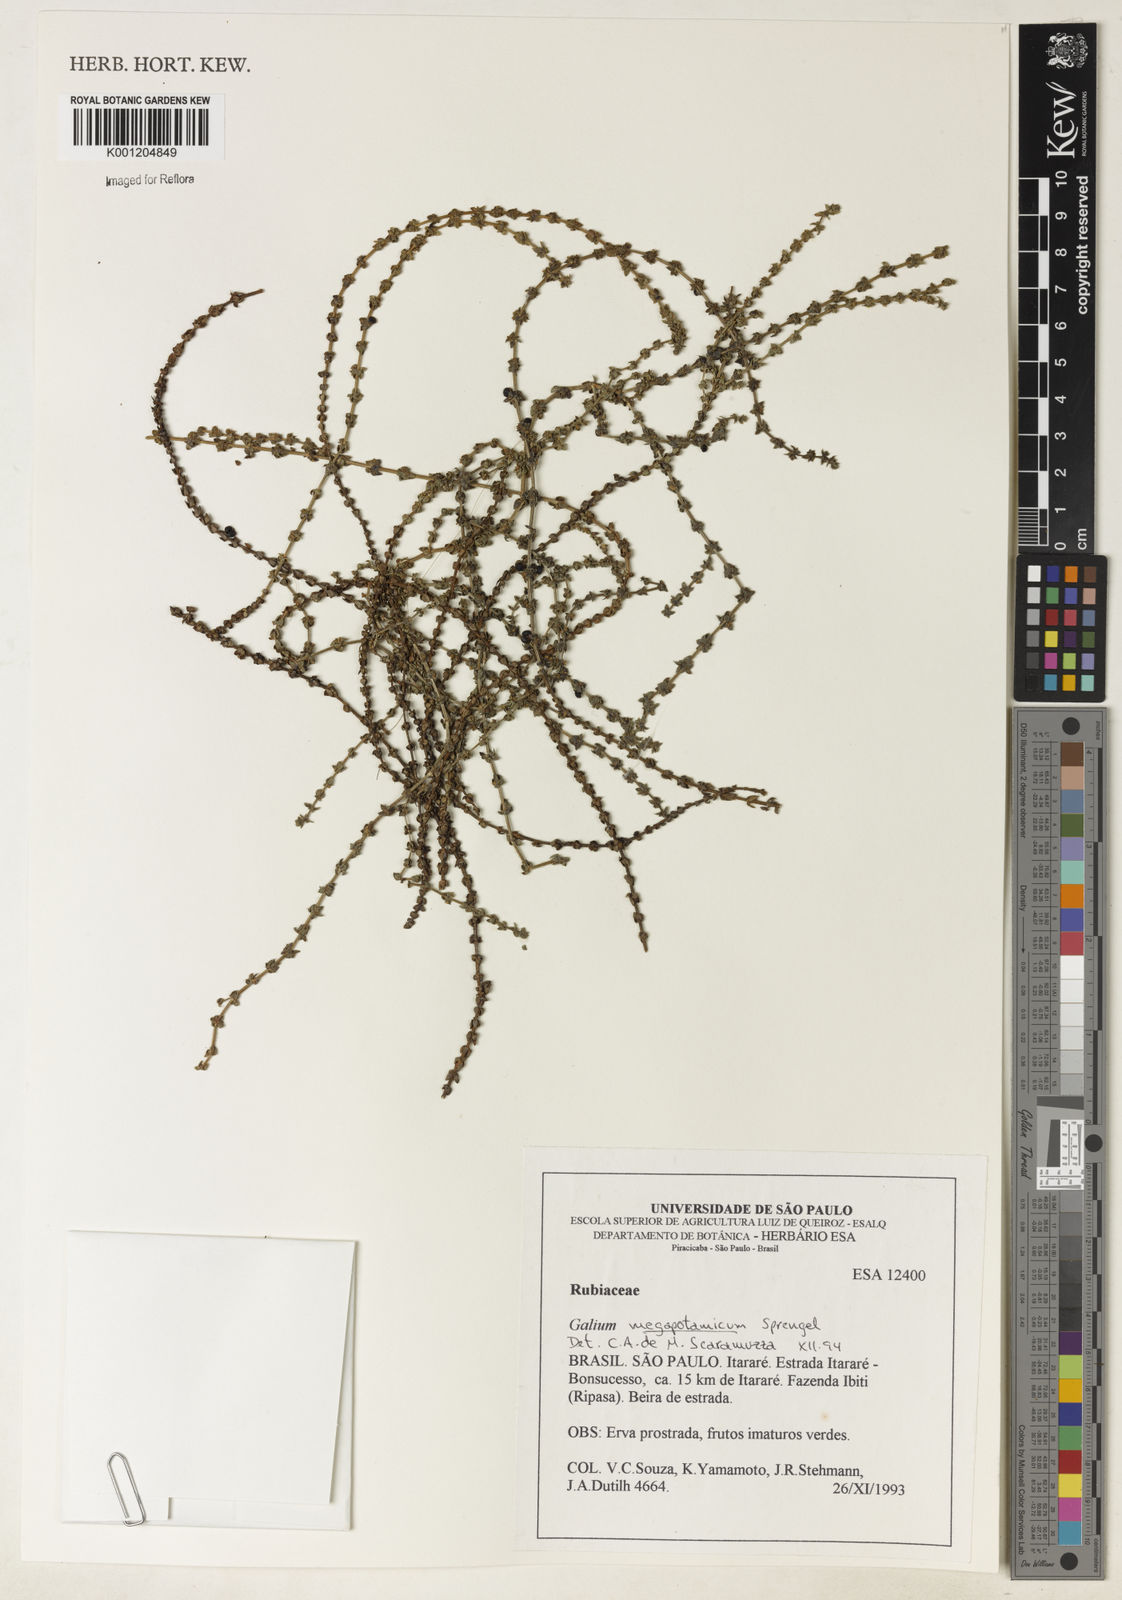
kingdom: Plantae
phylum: Tracheophyta
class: Magnoliopsida
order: Gentianales
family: Rubiaceae
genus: Galium
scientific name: Galium megapotamicum
